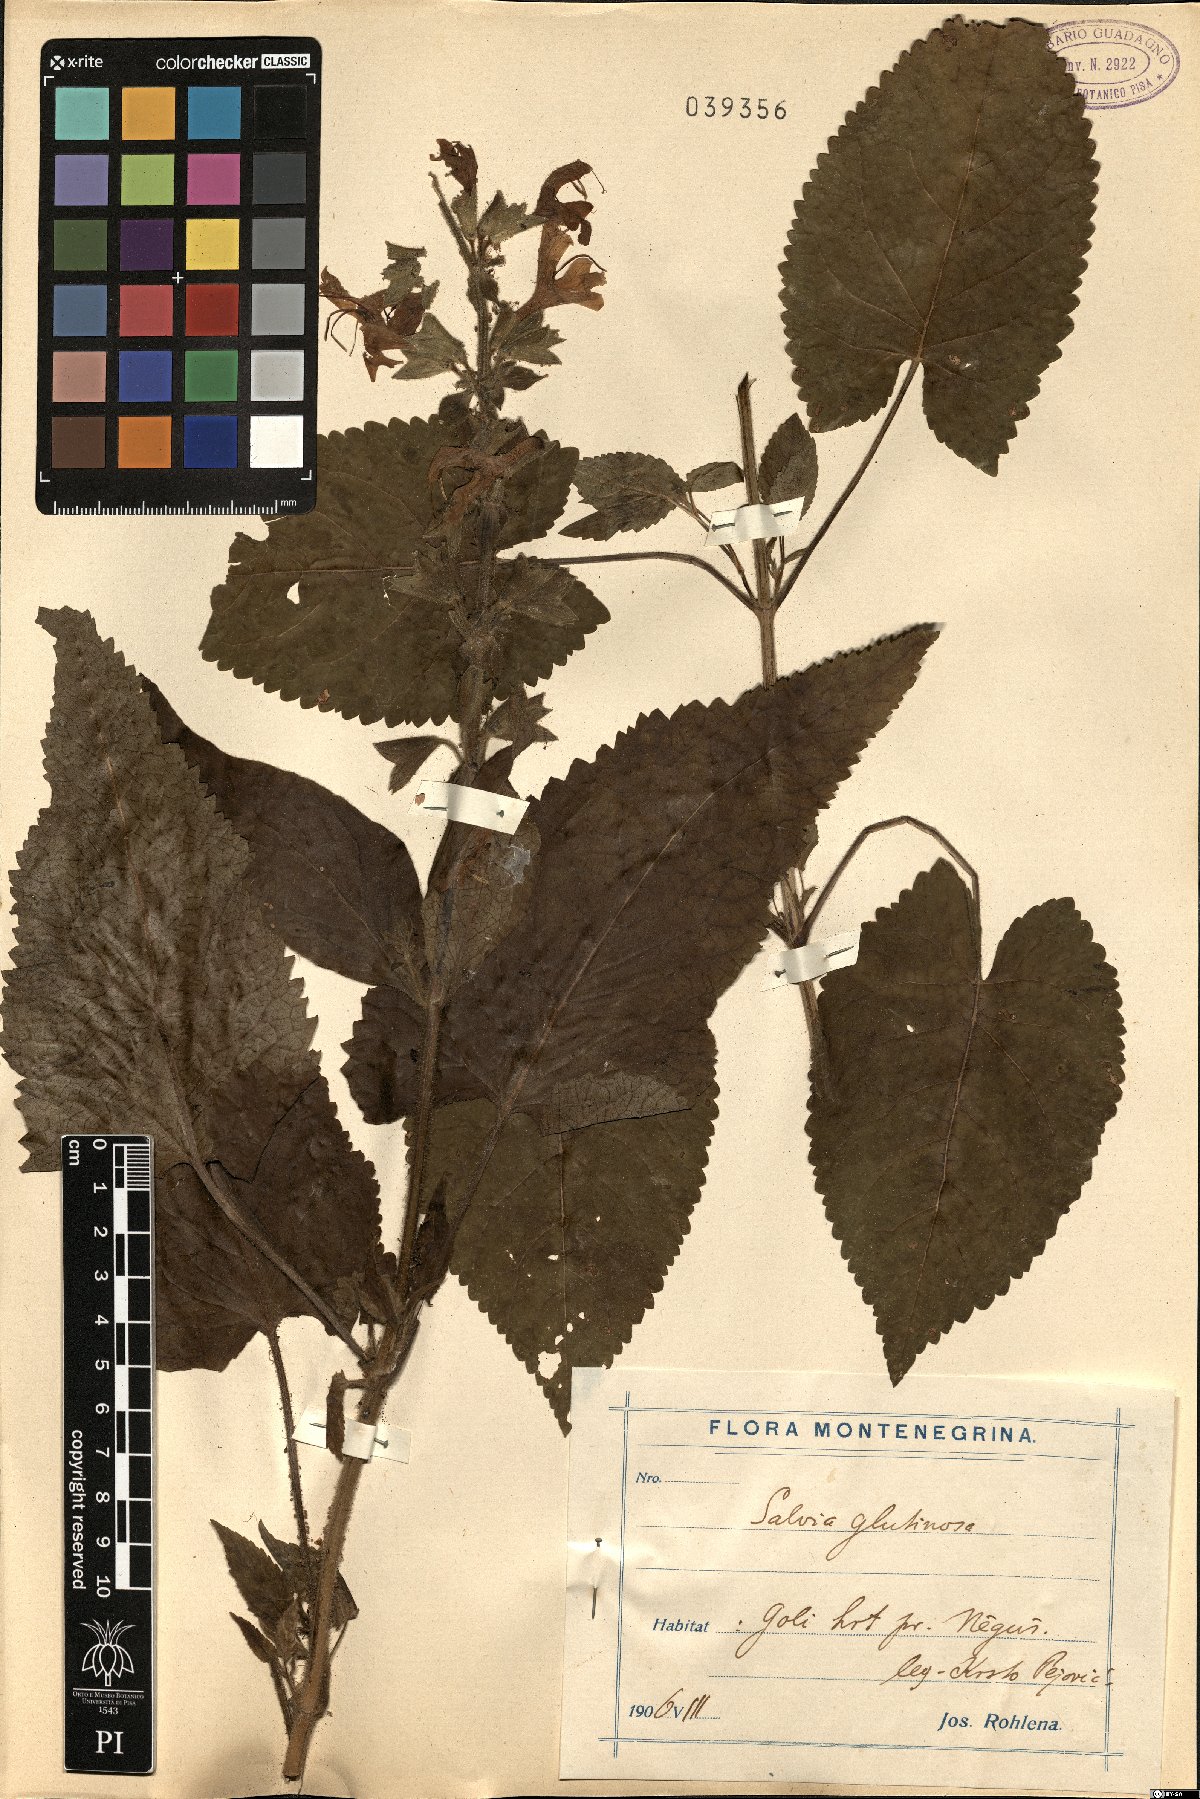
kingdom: Plantae
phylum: Tracheophyta
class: Magnoliopsida
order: Lamiales
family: Lamiaceae
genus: Salvia
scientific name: Salvia glutinosa
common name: Sticky clary
